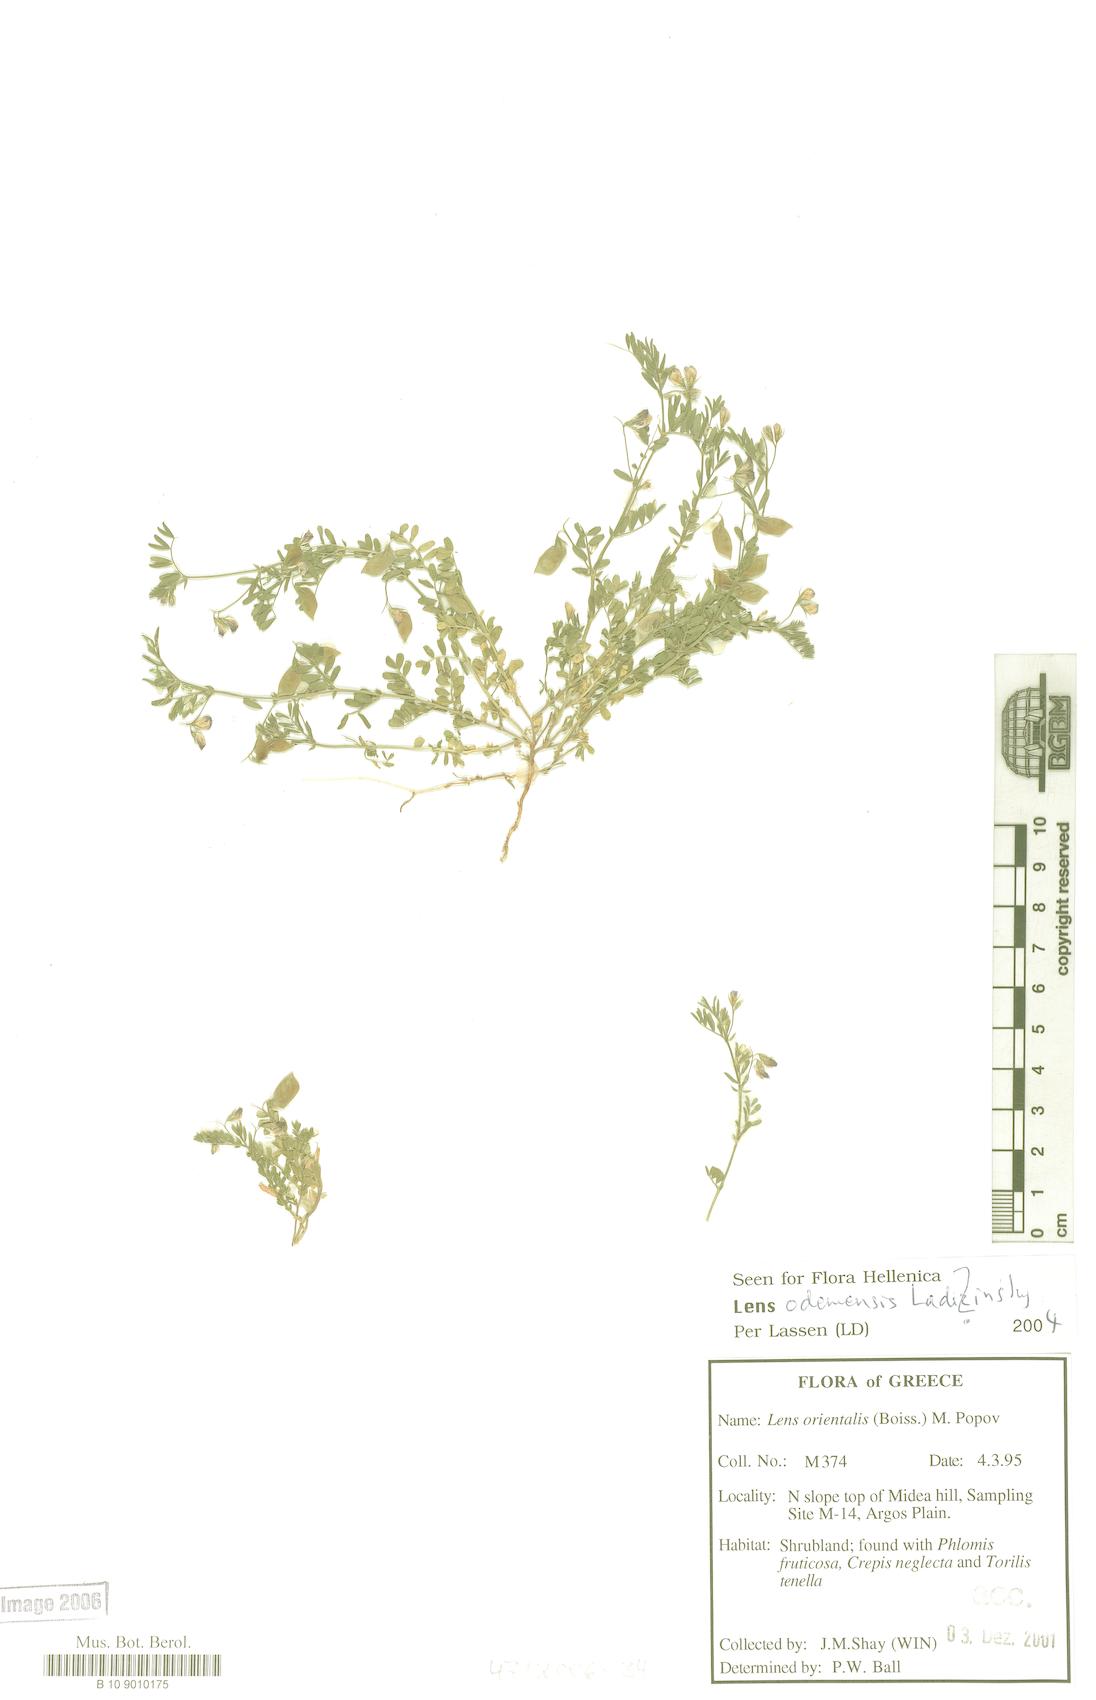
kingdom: Plantae
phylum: Tracheophyta
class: Magnoliopsida
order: Fabales
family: Fabaceae
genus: Vicia
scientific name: Vicia lens
